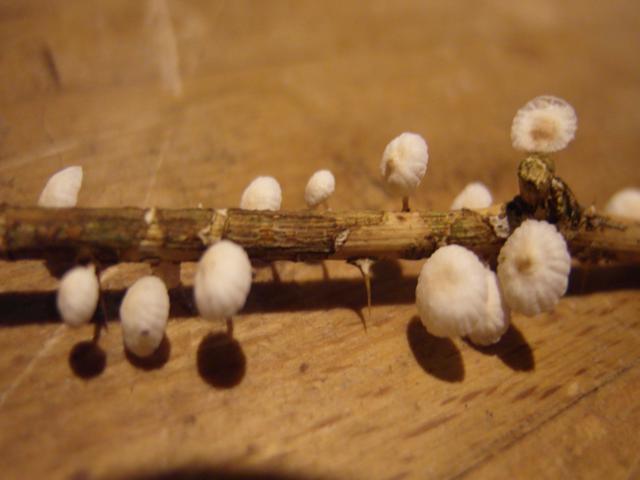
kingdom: Fungi
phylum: Basidiomycota
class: Agaricomycetes
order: Agaricales
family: Omphalotaceae
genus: Collybiopsis
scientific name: Collybiopsis ramealis
